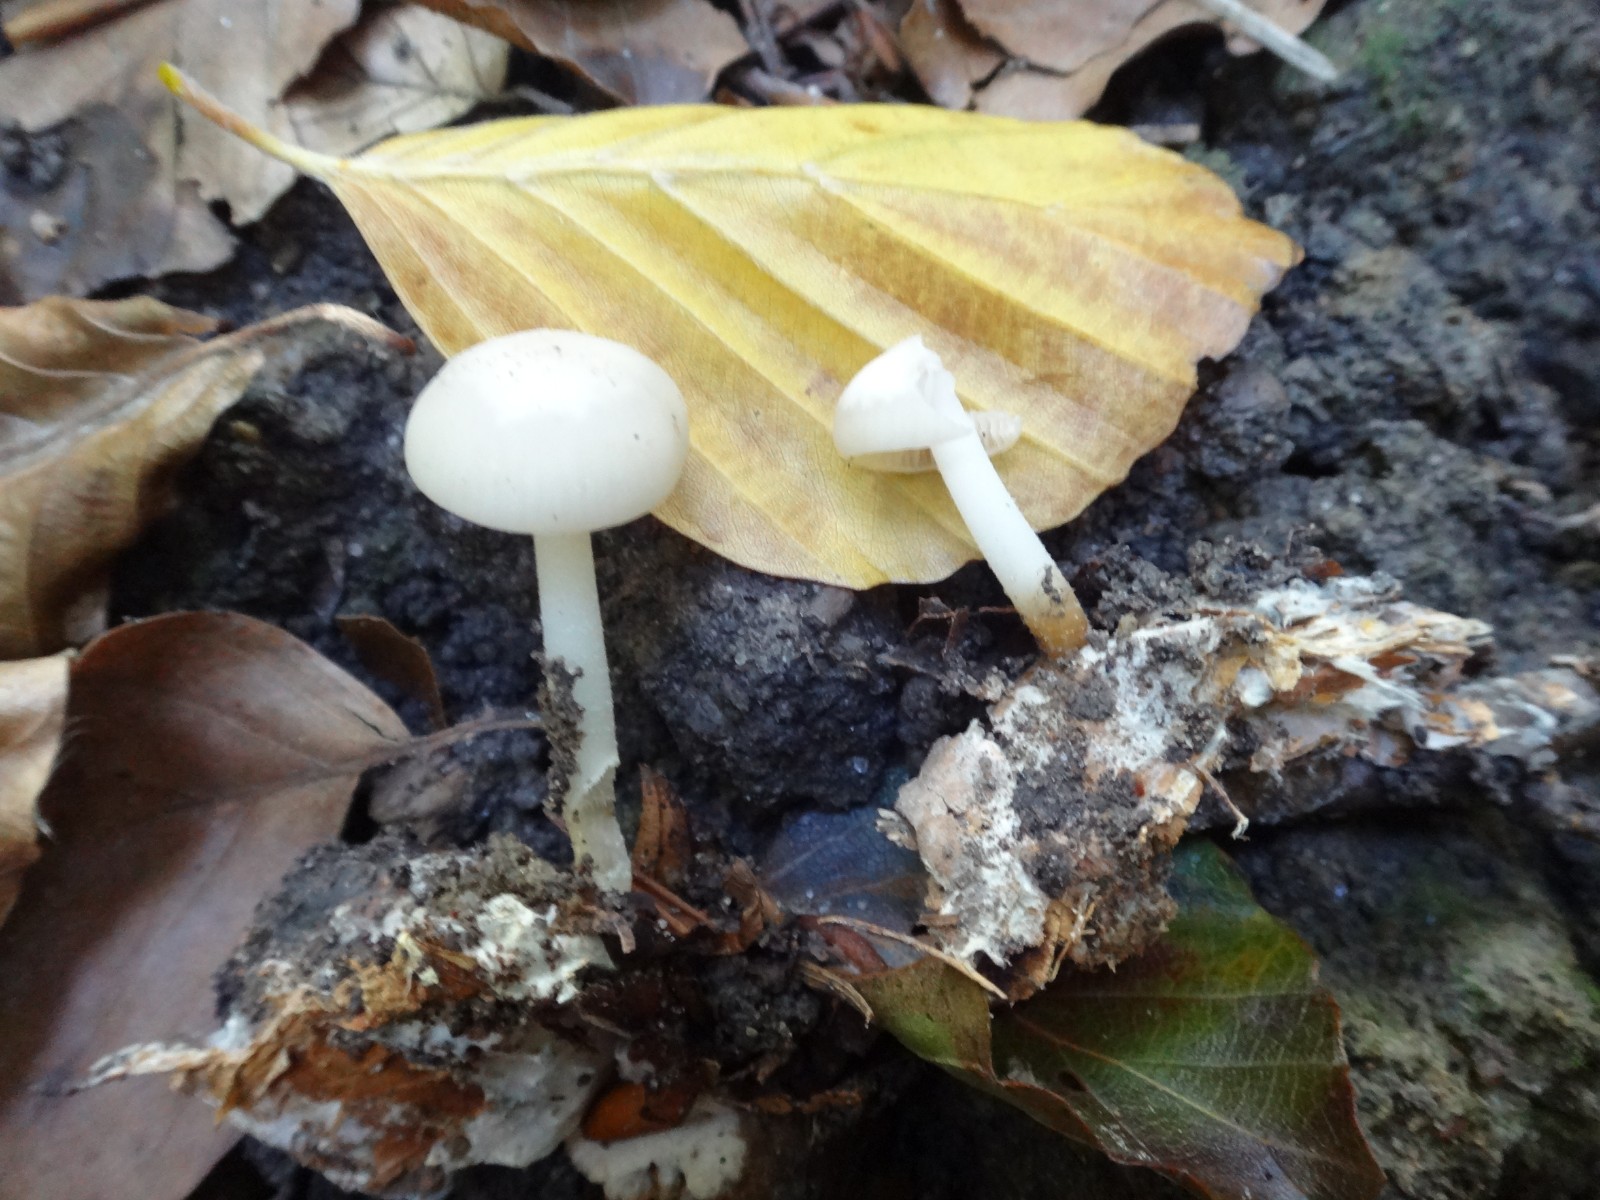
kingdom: Fungi
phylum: Basidiomycota
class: Agaricomycetes
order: Agaricales
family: Marasmiaceae
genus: Marasmius
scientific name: Marasmius wynneae
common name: hvælvet bruskhat
